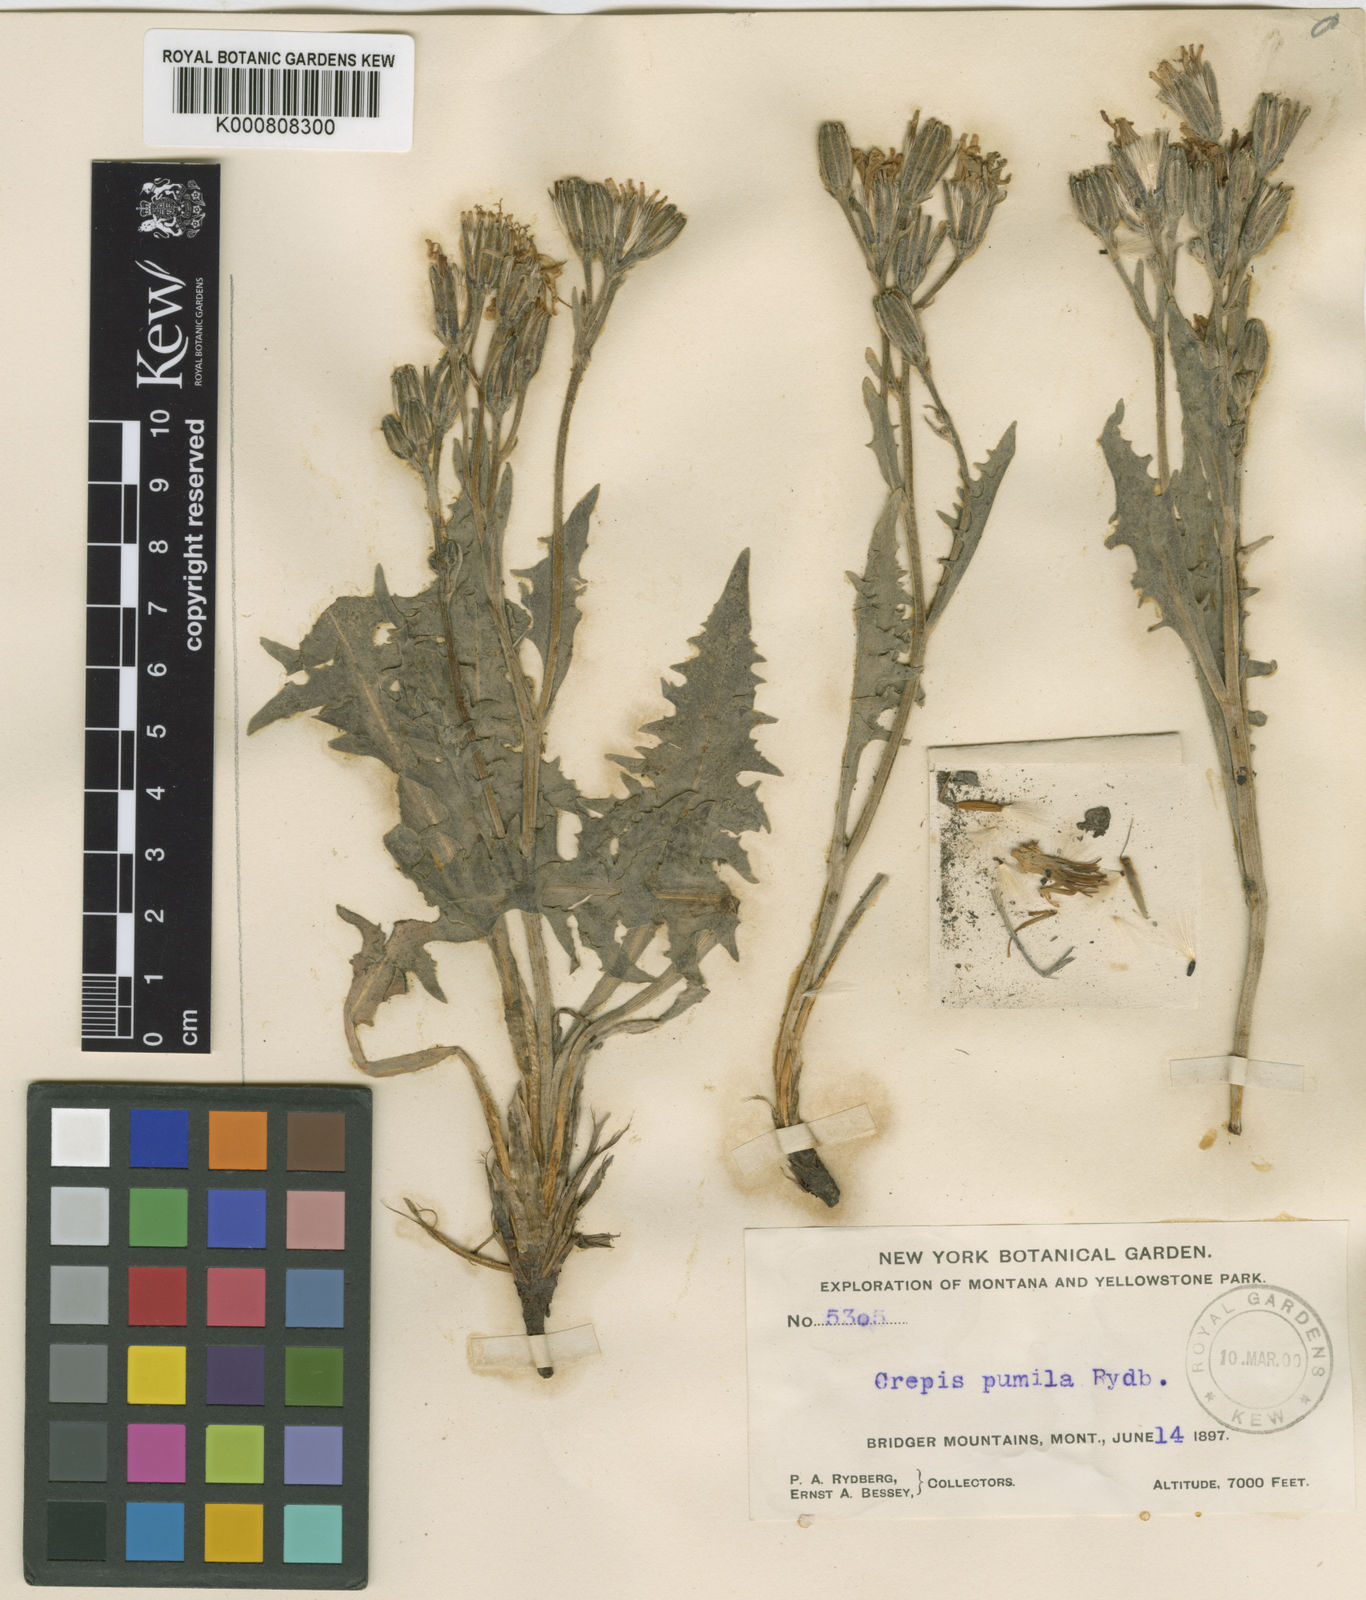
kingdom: Plantae
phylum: Tracheophyta
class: Magnoliopsida
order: Asterales
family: Asteraceae
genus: Crepis
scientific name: Crepis occidentalis
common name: Gray hawk's-beard
